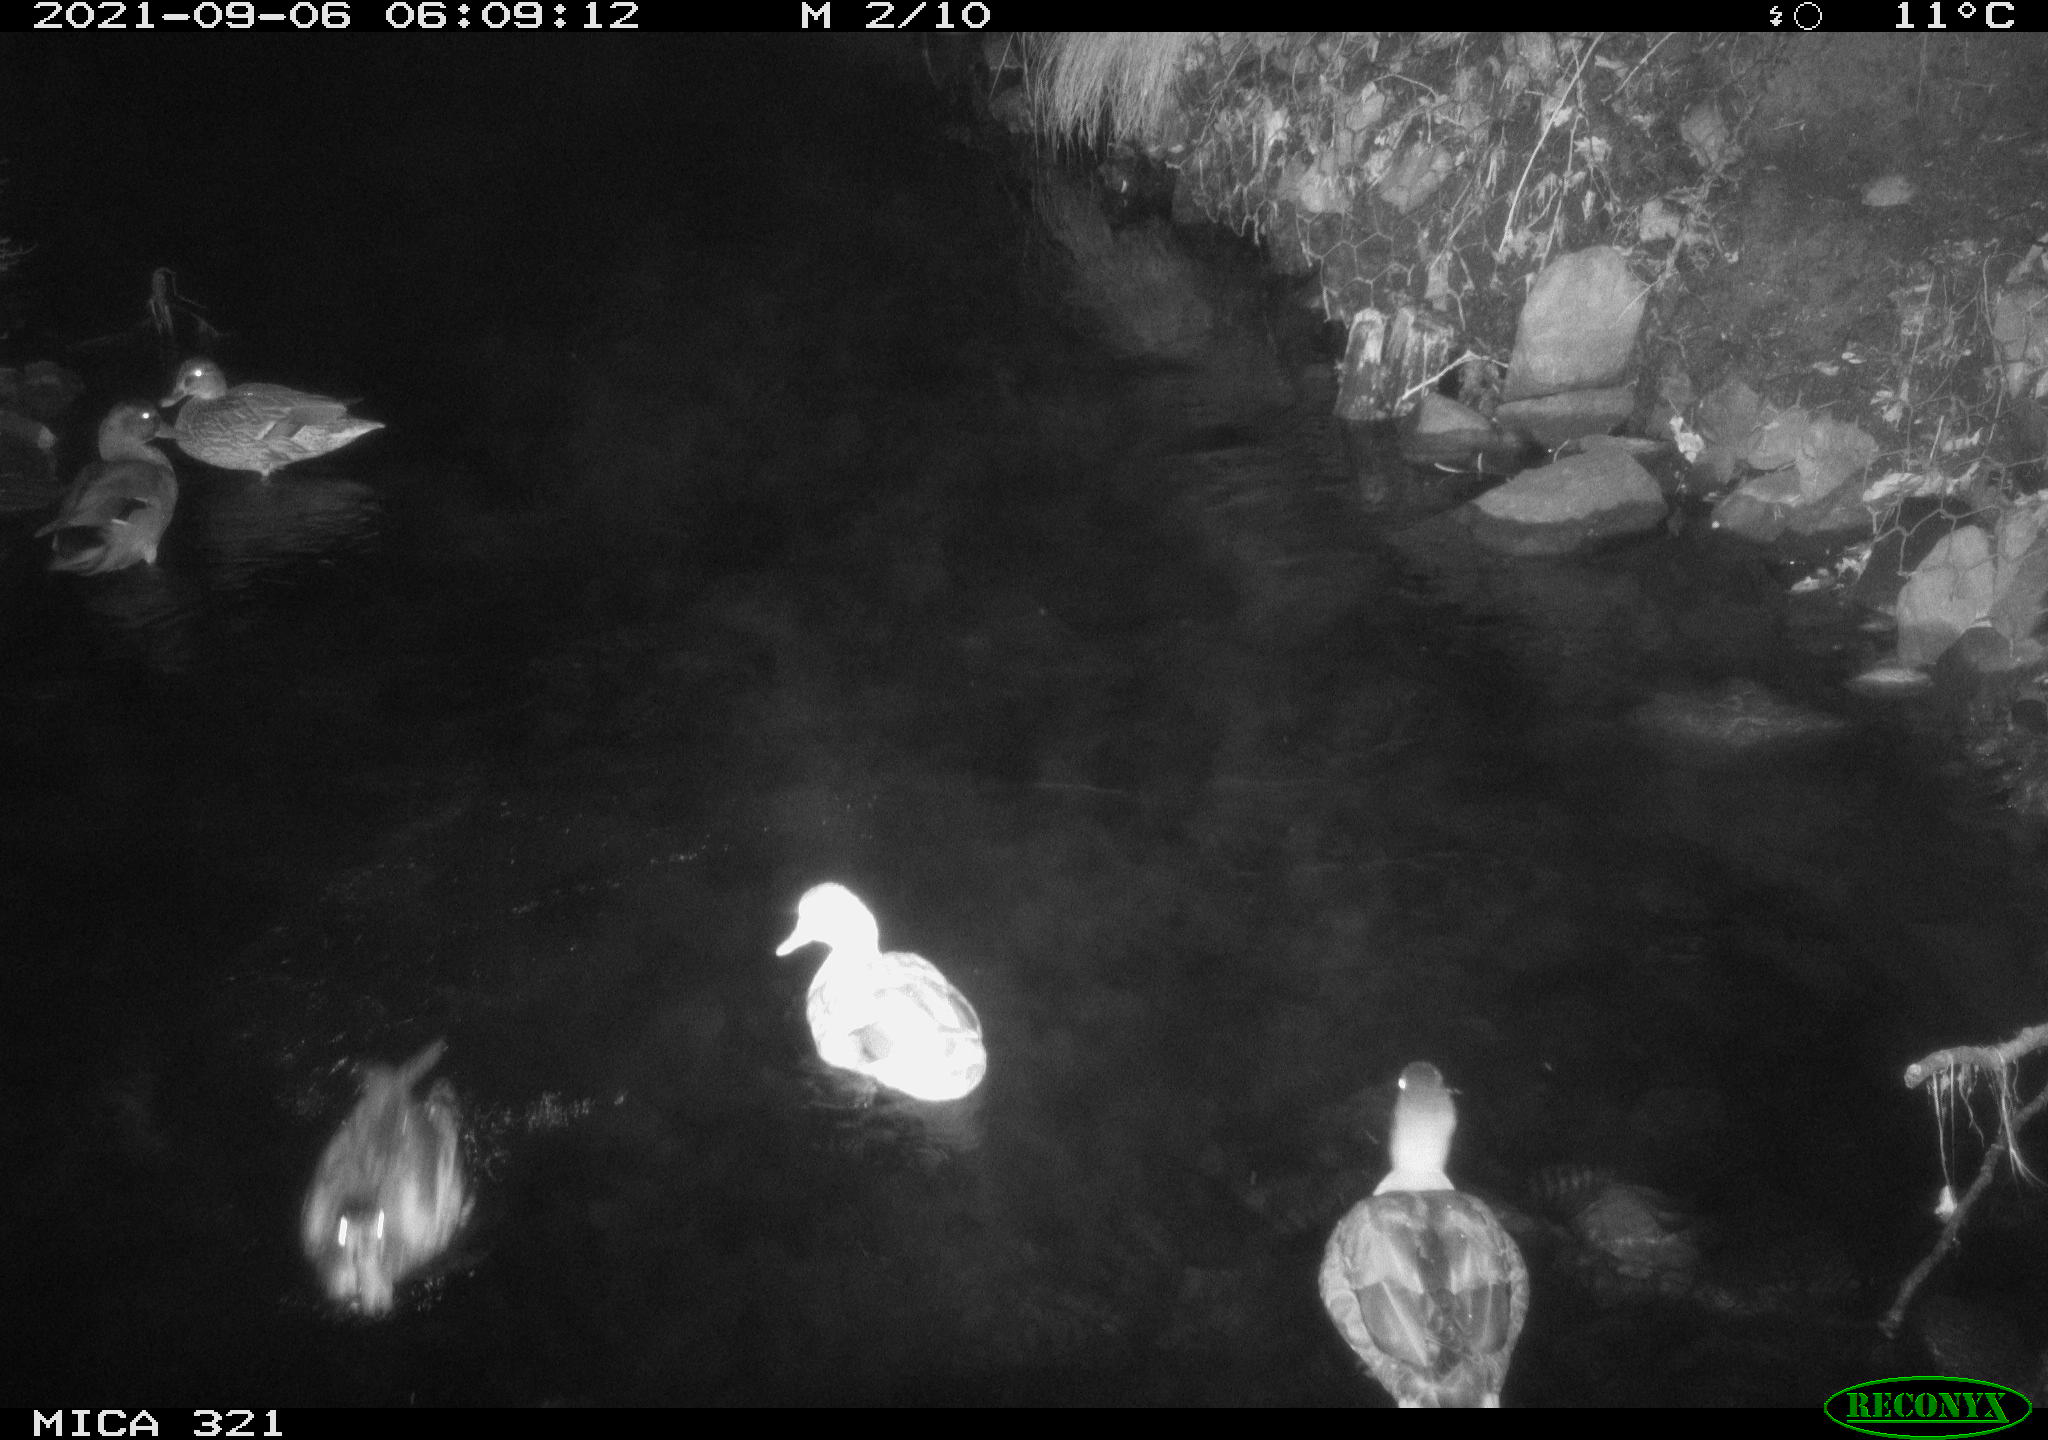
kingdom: Animalia
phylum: Chordata
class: Aves
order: Anseriformes
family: Anatidae
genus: Anas
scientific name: Anas platyrhynchos
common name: Mallard
